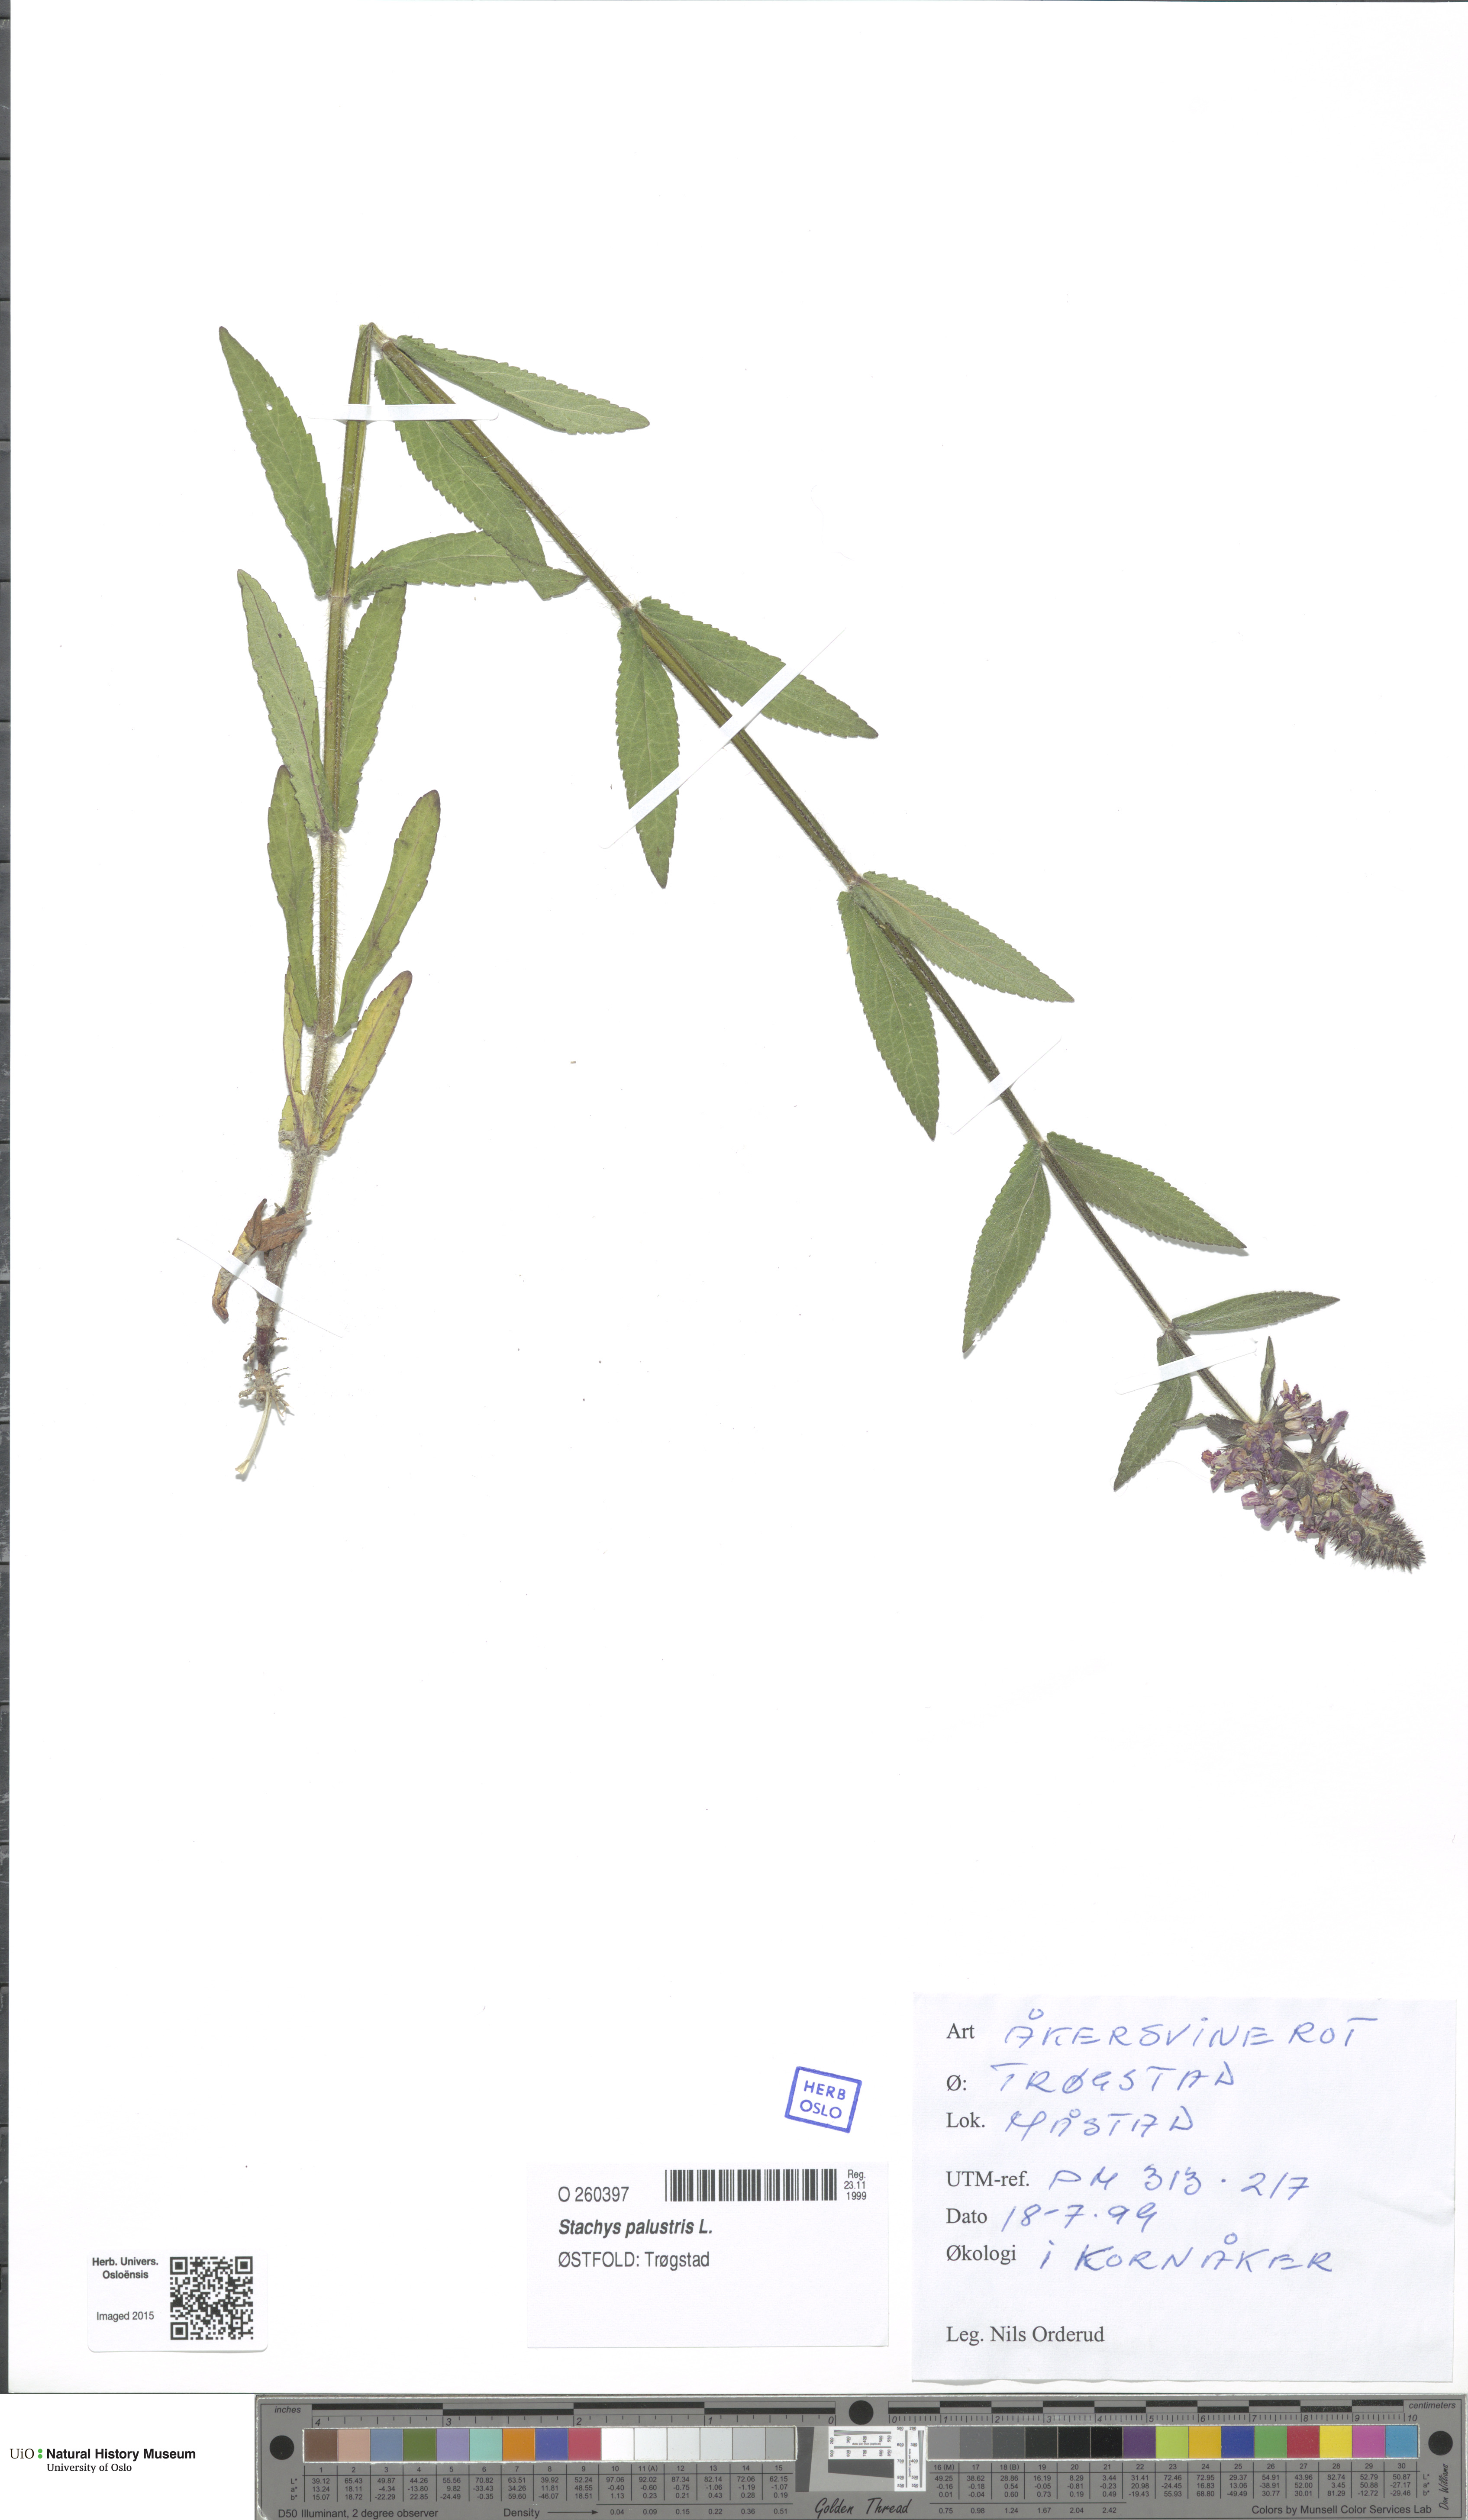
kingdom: Plantae
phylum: Tracheophyta
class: Magnoliopsida
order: Lamiales
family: Lamiaceae
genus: Stachys
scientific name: Stachys palustris
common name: Marsh woundwort
